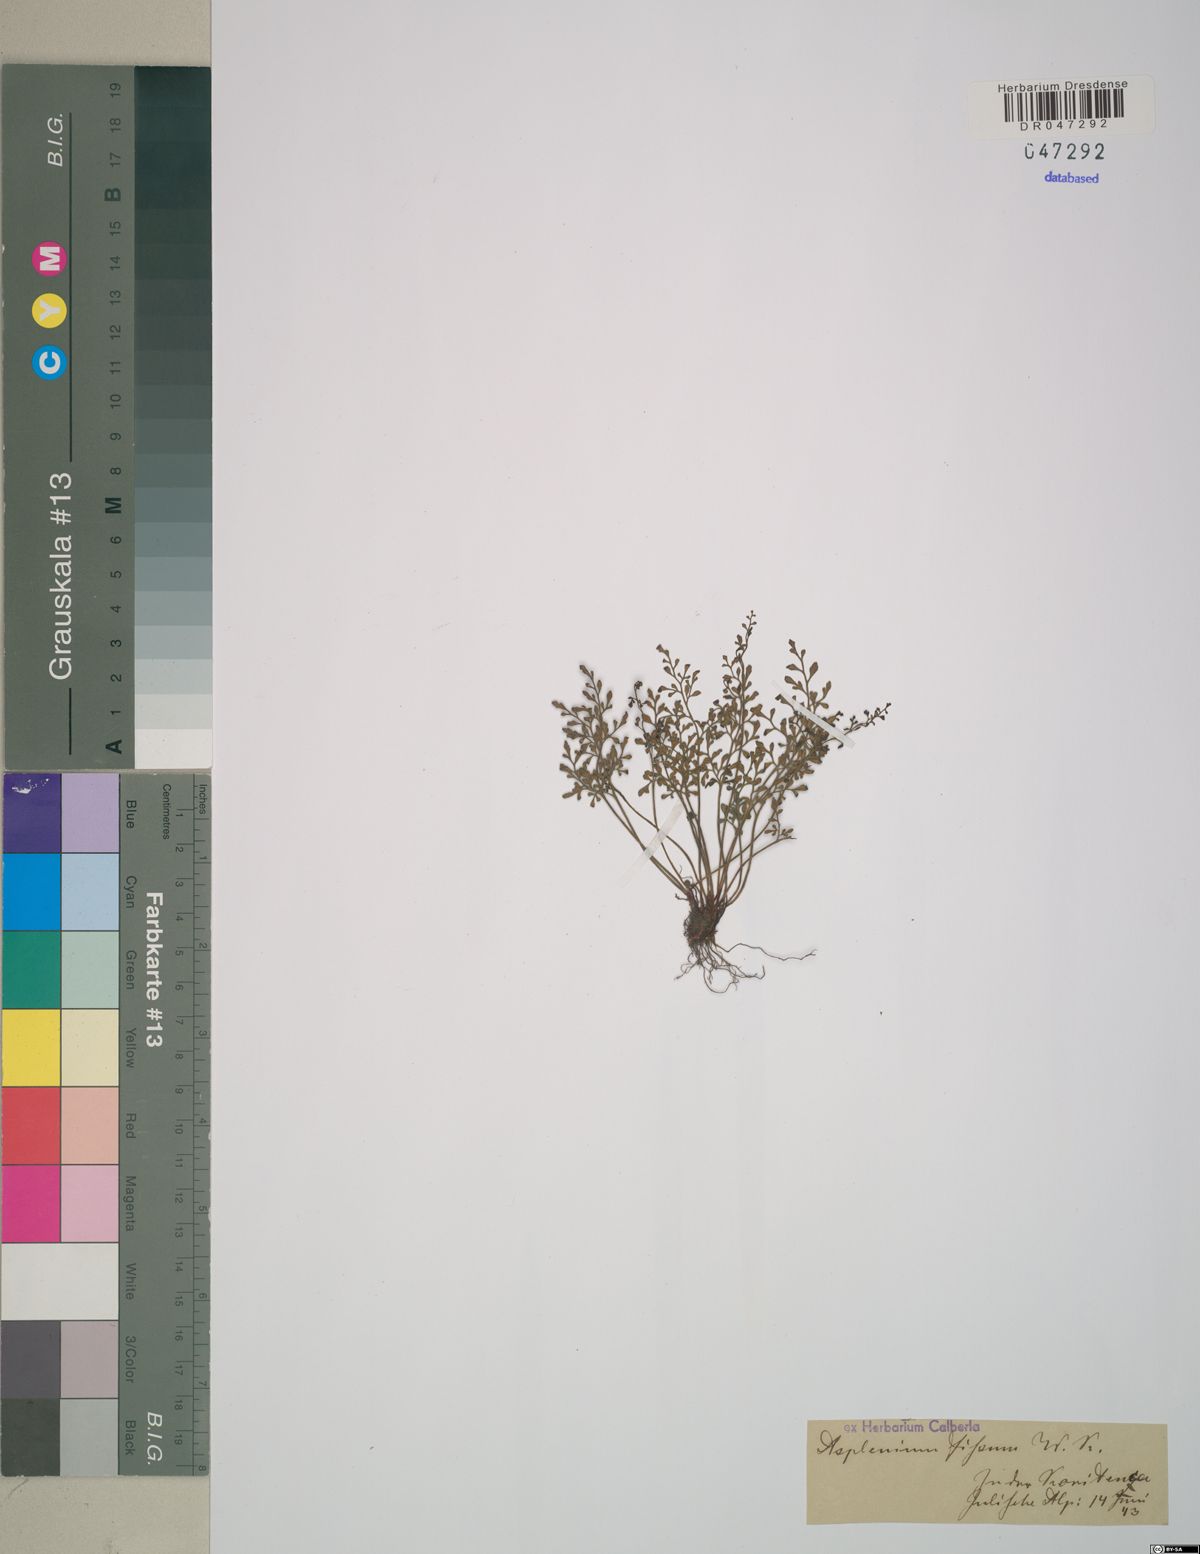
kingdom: Plantae
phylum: Tracheophyta
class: Polypodiopsida
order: Polypodiales
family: Aspleniaceae
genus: Asplenium
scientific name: Asplenium fissum
